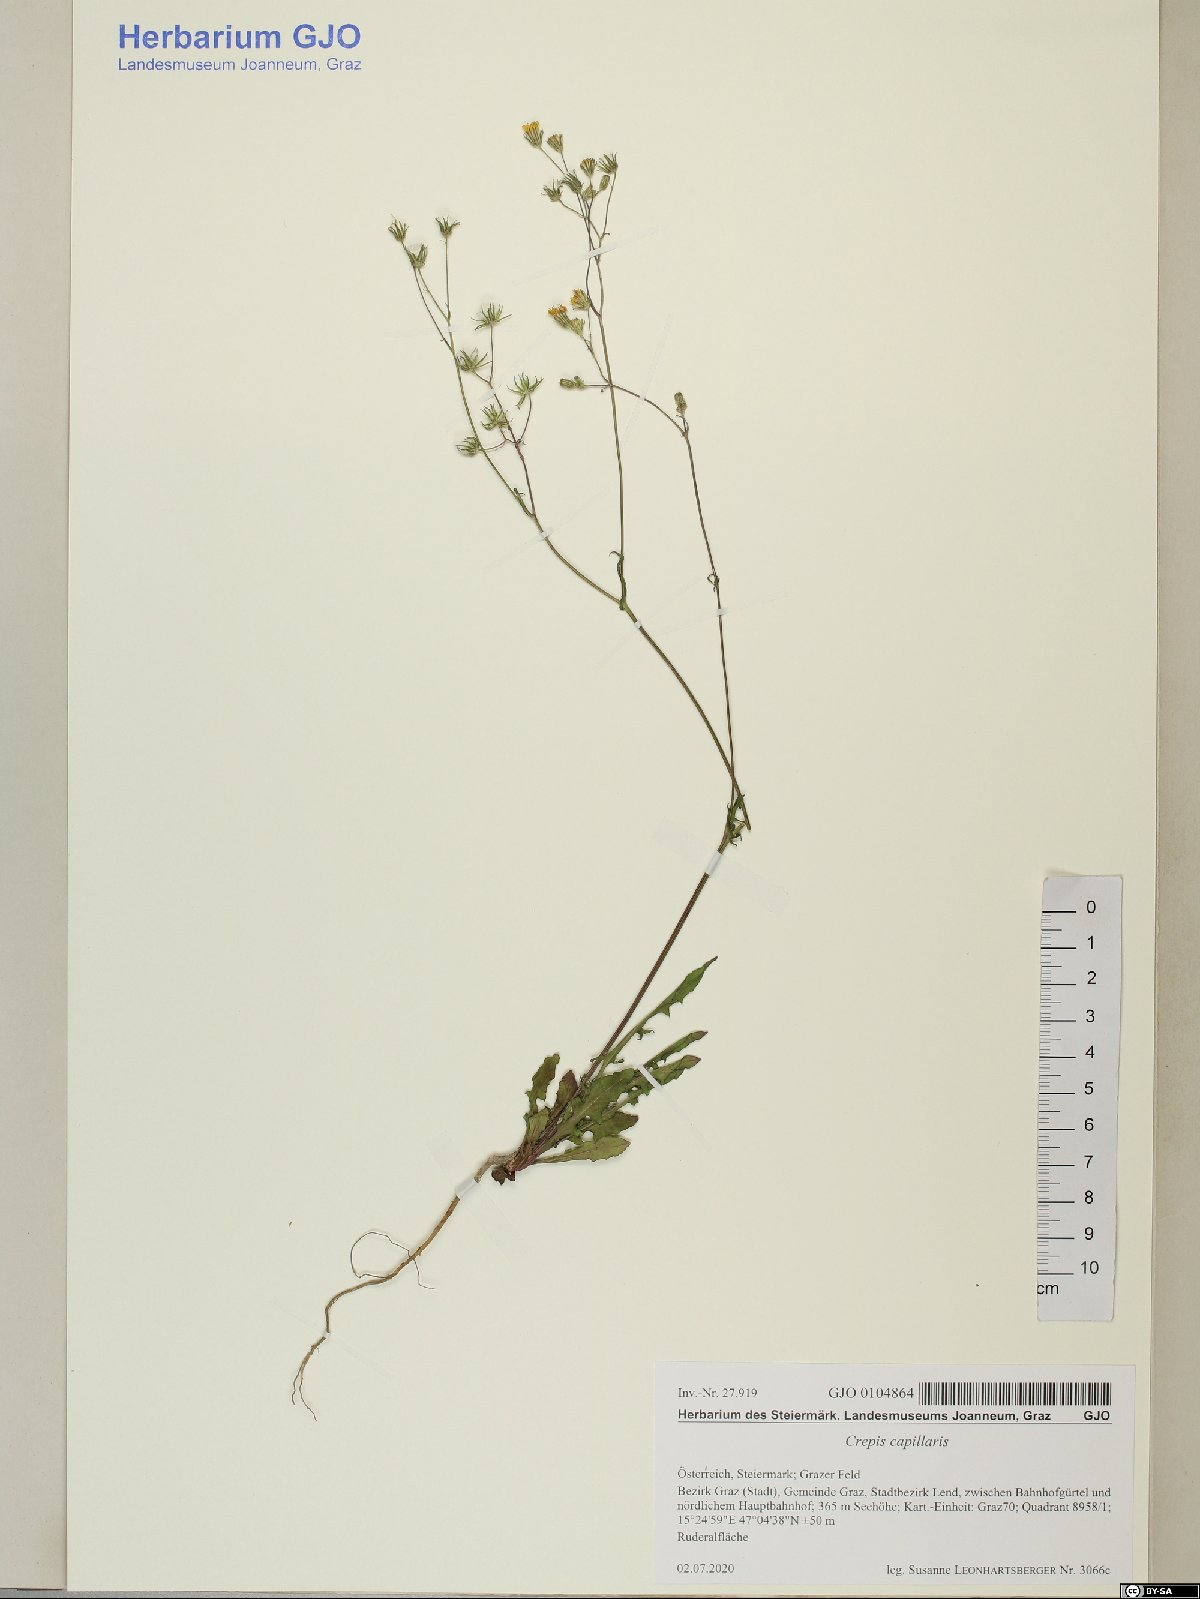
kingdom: Plantae
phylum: Tracheophyta
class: Magnoliopsida
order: Asterales
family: Asteraceae
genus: Crepis
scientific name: Crepis capillaris
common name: Smooth hawksbeard
